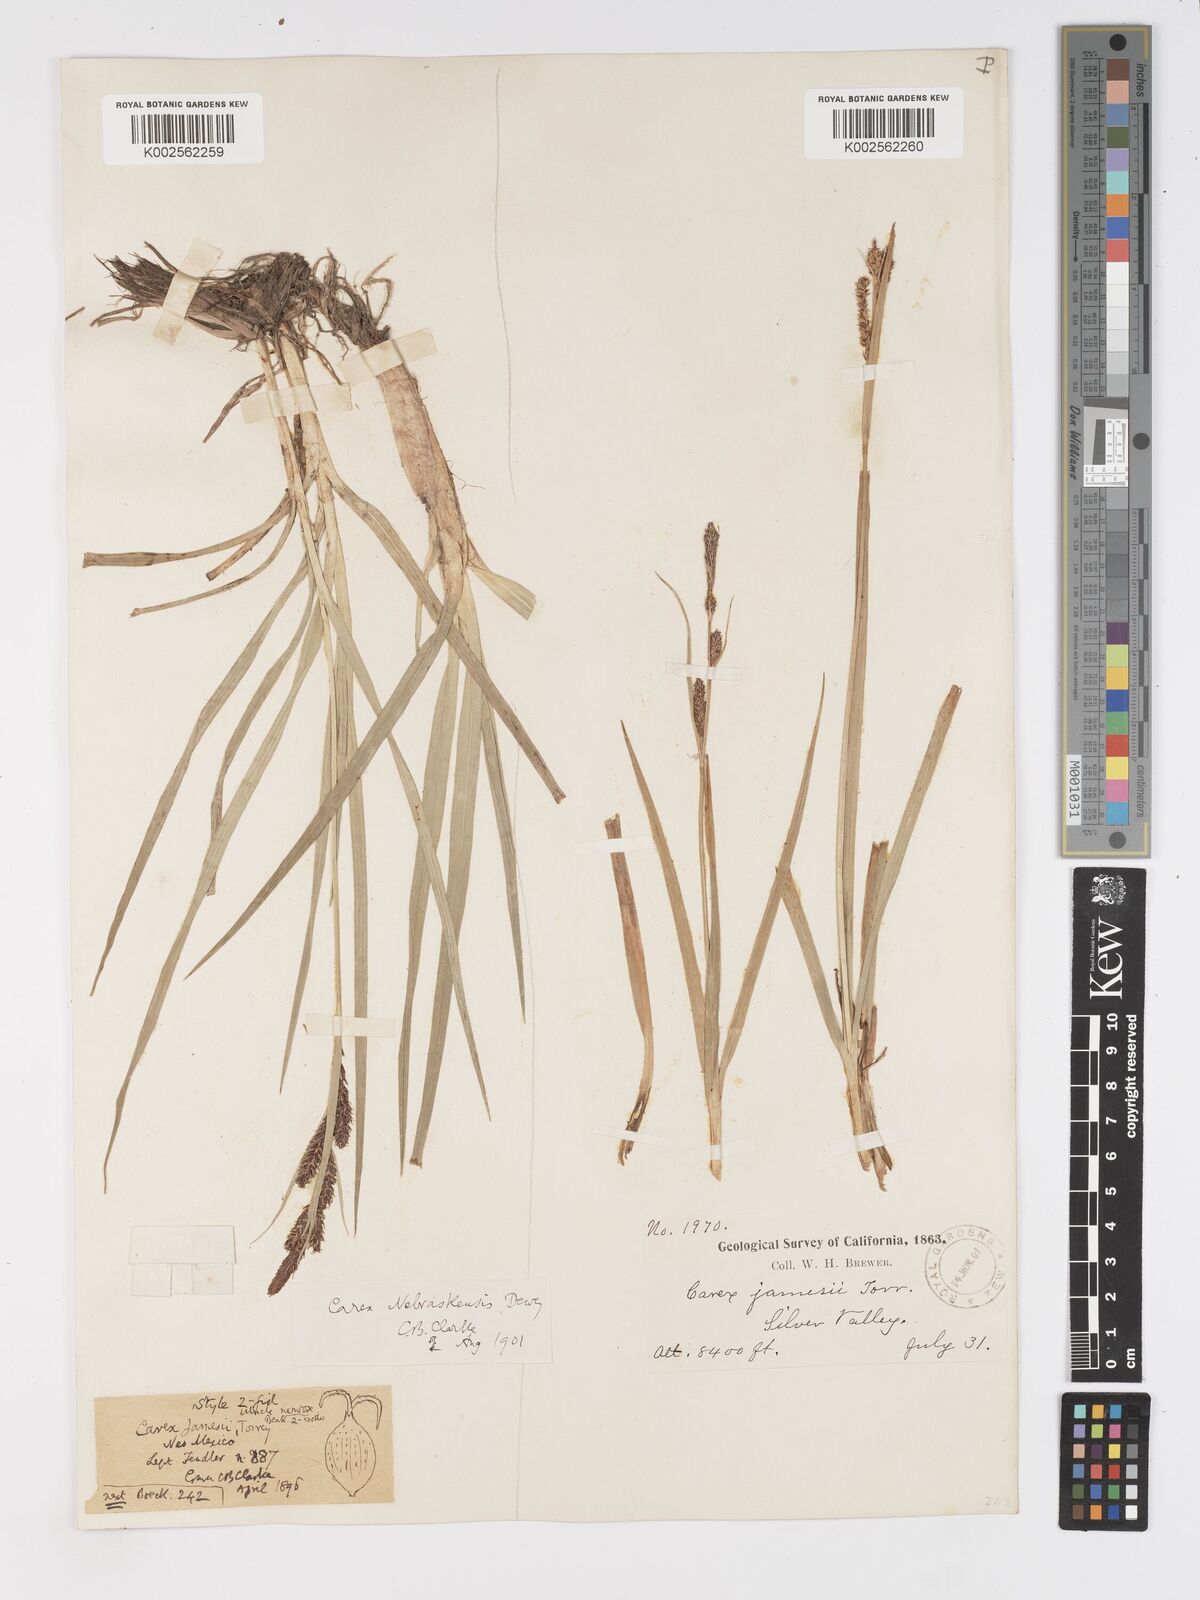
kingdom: Plantae
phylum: Tracheophyta
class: Liliopsida
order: Poales
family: Cyperaceae
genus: Carex
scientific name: Carex nebrascensis
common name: Nebraska sedge
